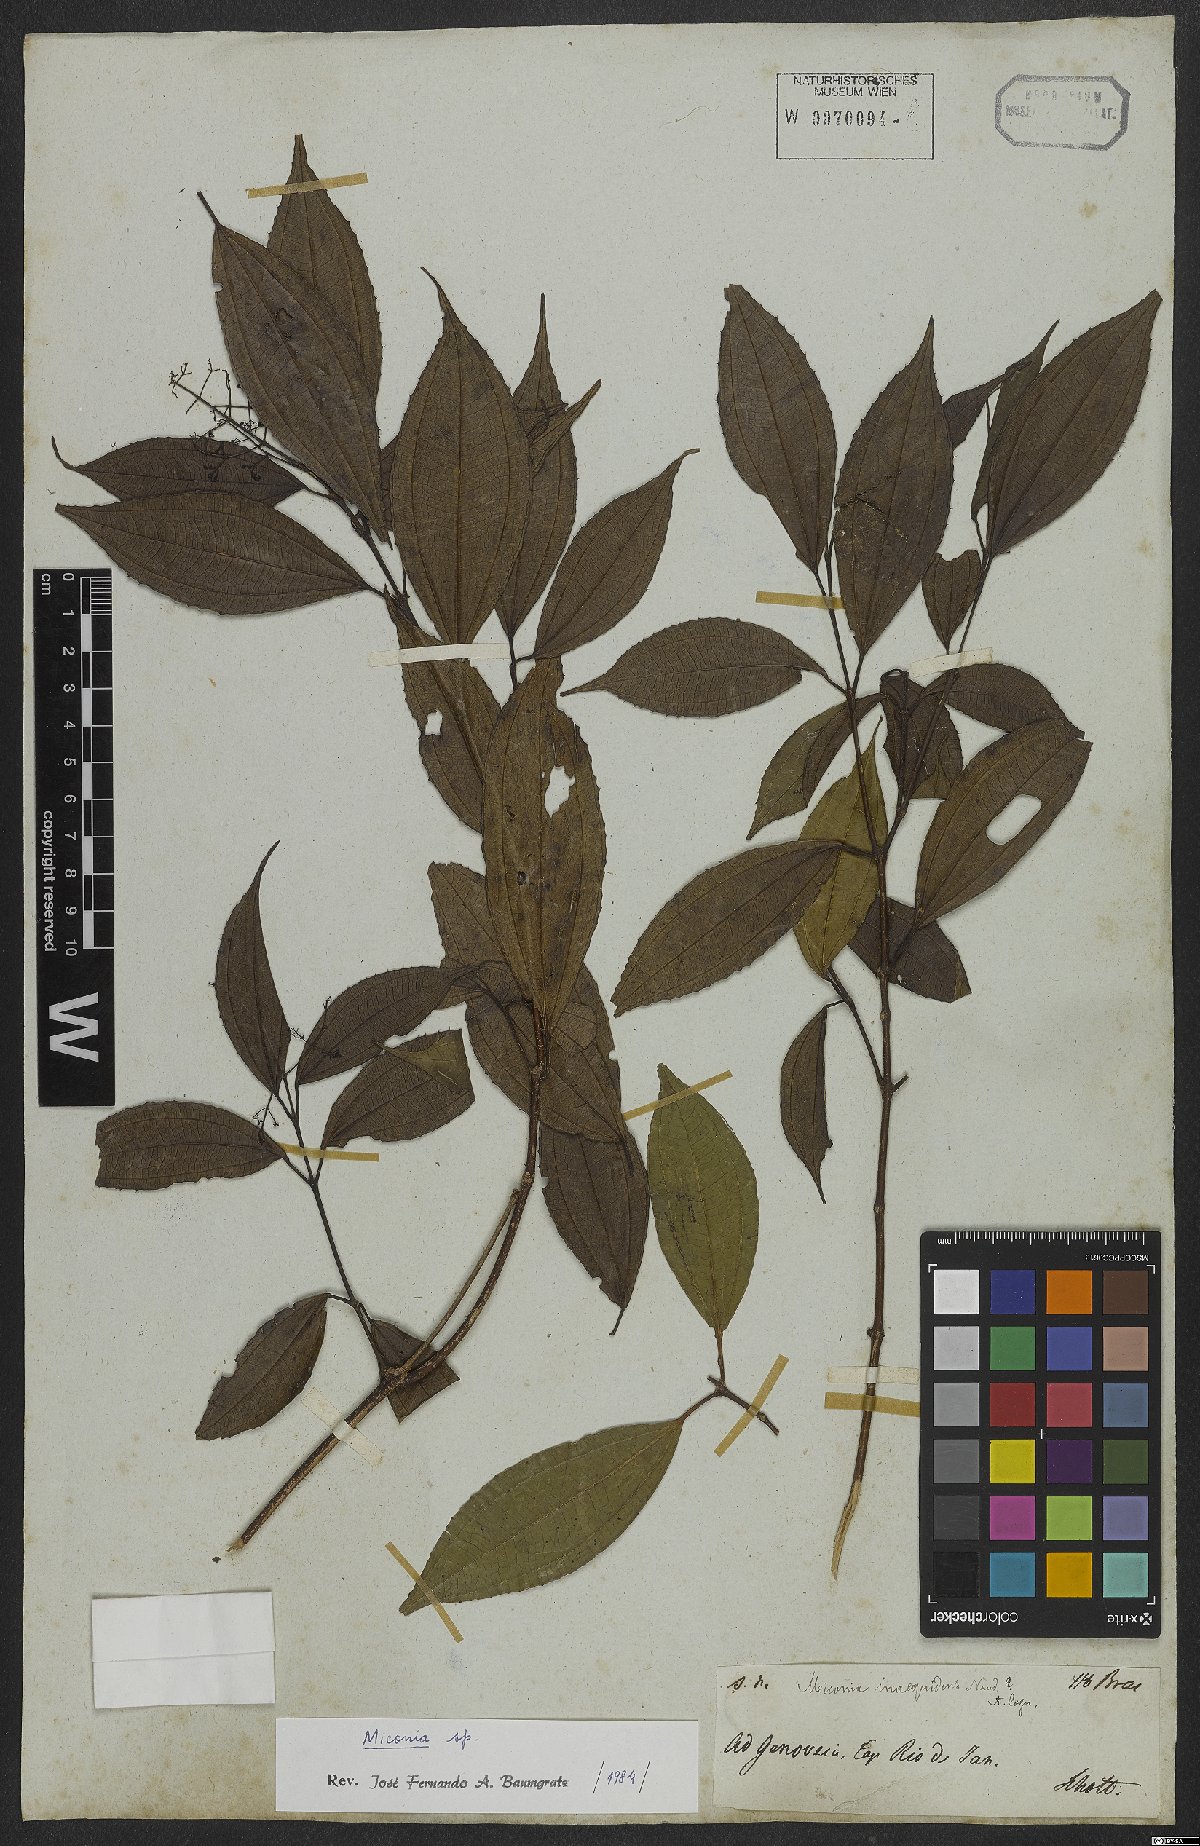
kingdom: Plantae
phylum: Tracheophyta
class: Magnoliopsida
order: Myrtales
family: Melastomataceae
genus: Miconia
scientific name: Miconia
